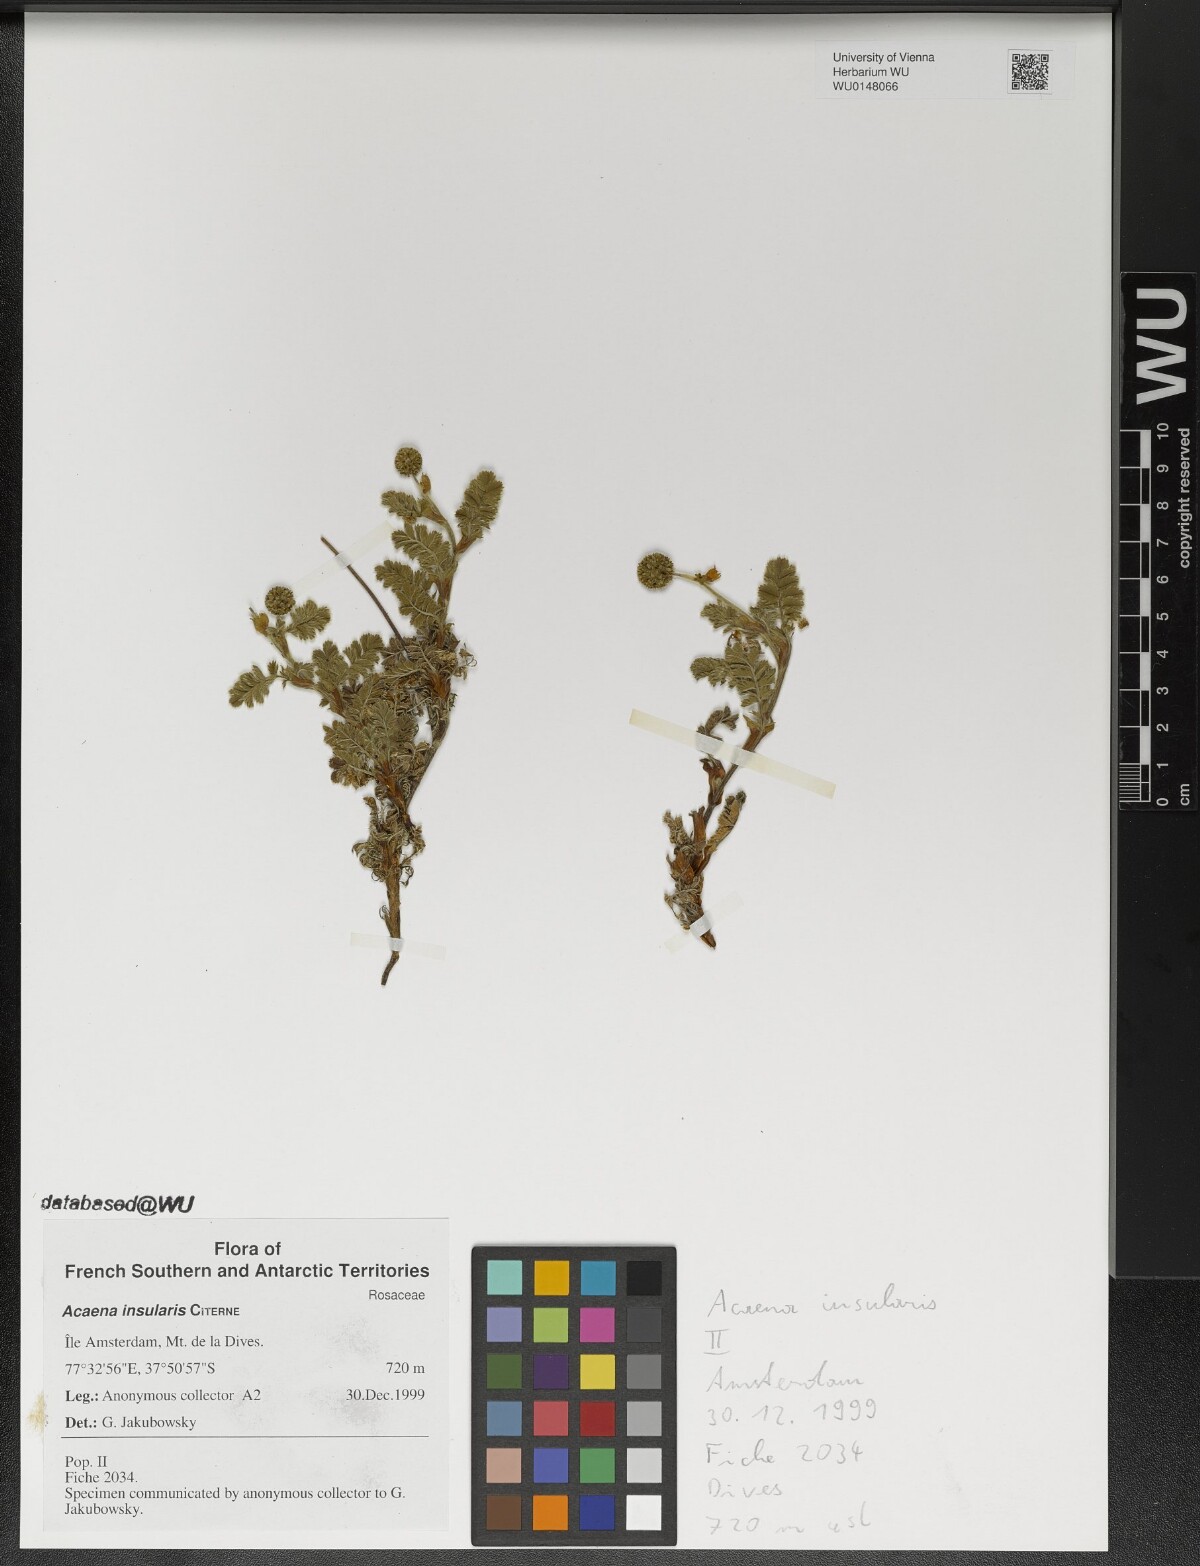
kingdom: Plantae
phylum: Tracheophyta
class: Magnoliopsida
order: Rosales
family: Rosaceae
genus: Acaena
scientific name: Acaena insularis
